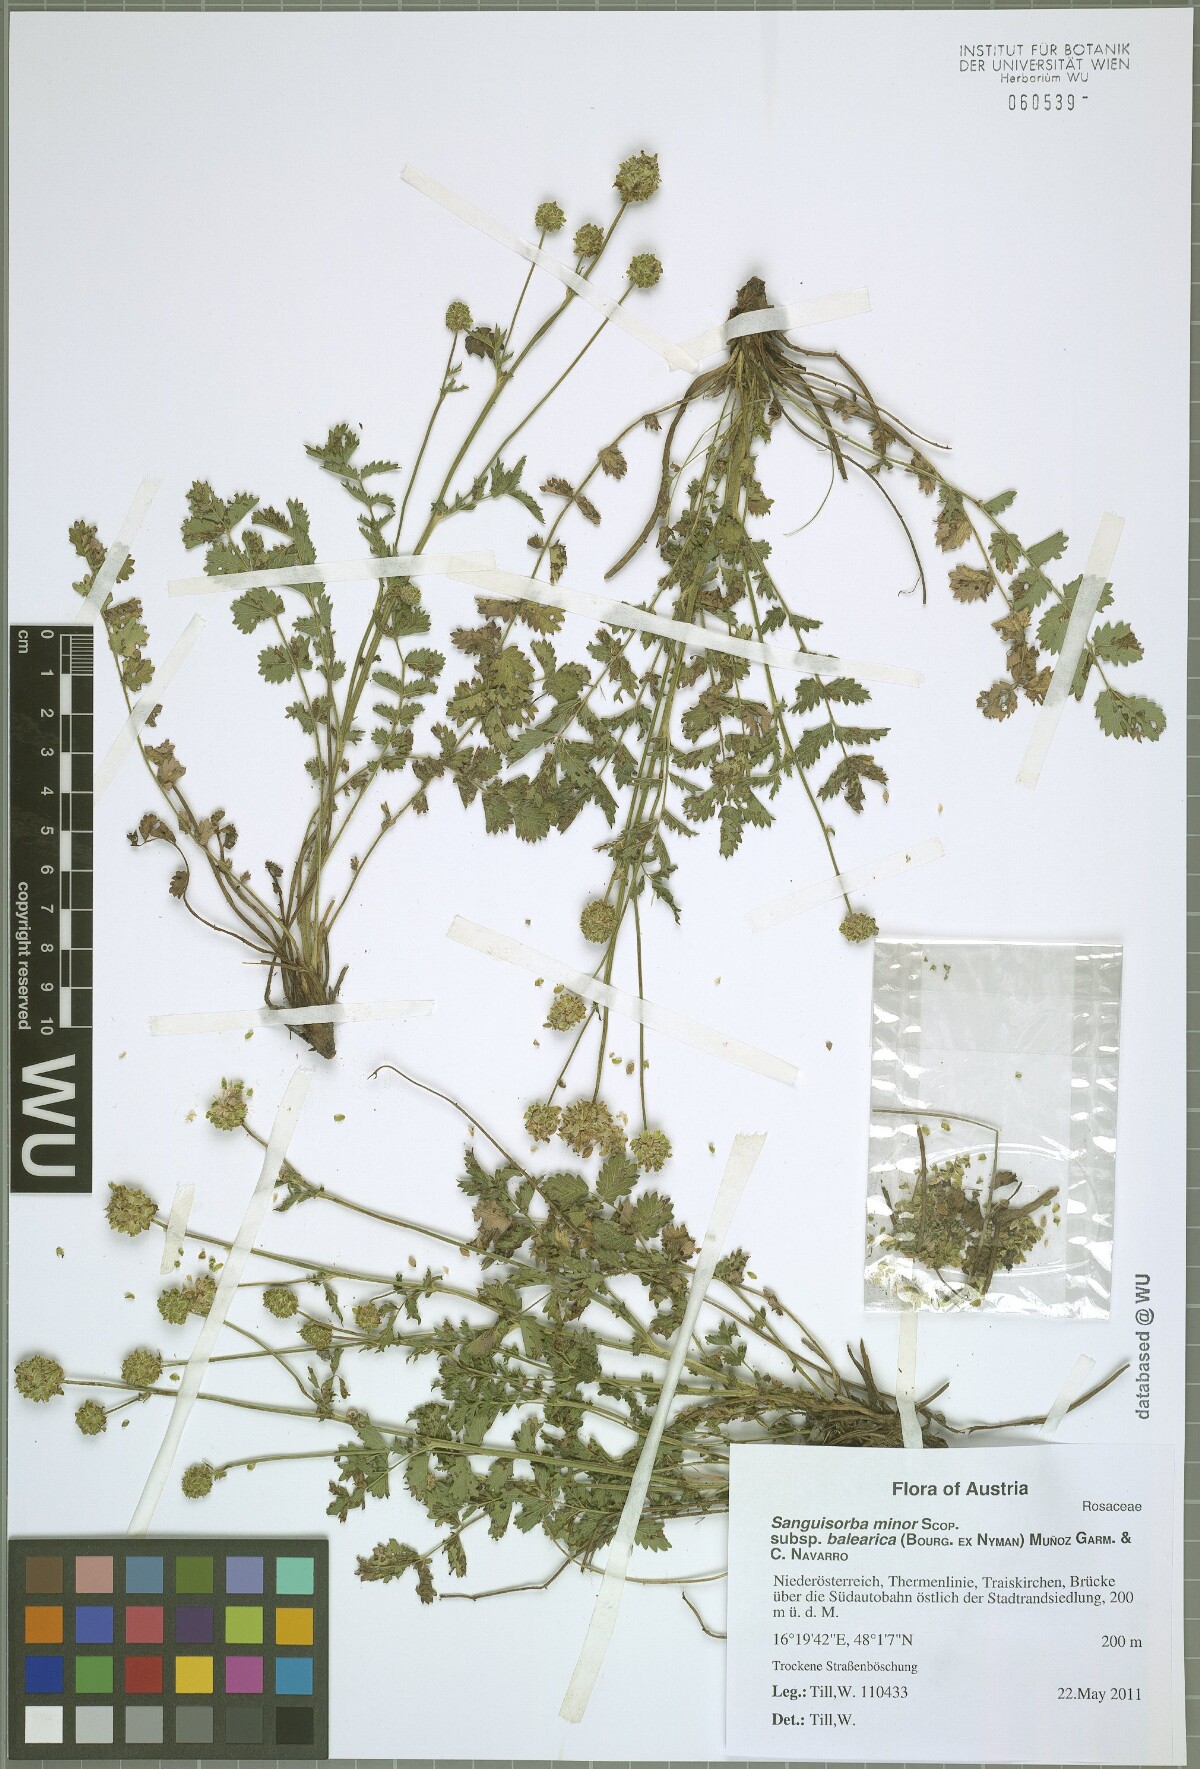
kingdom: Plantae
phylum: Tracheophyta
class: Magnoliopsida
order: Rosales
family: Rosaceae
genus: Poterium
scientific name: Poterium sanguisorba
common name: Salad burnet
